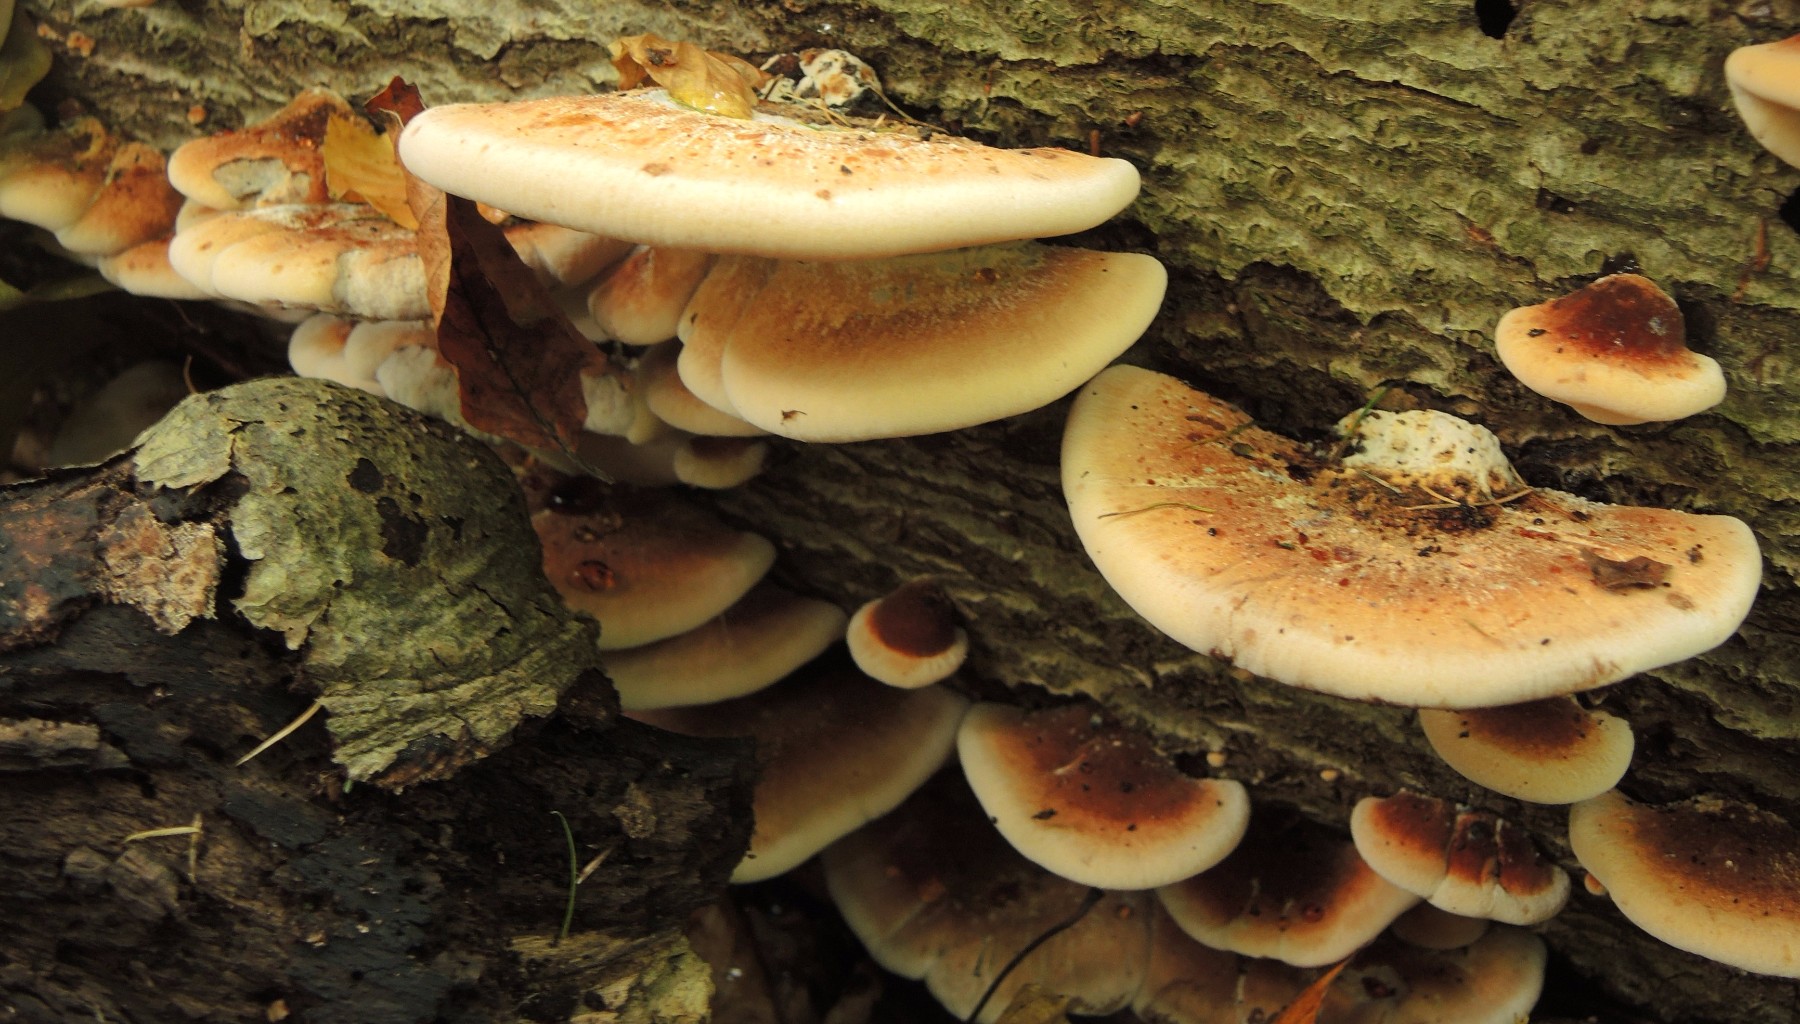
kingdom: Fungi
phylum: Basidiomycota
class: Agaricomycetes
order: Polyporales
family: Ischnodermataceae
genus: Ischnoderma
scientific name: Ischnoderma resinosum
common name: løv-tjæreporesvamp
